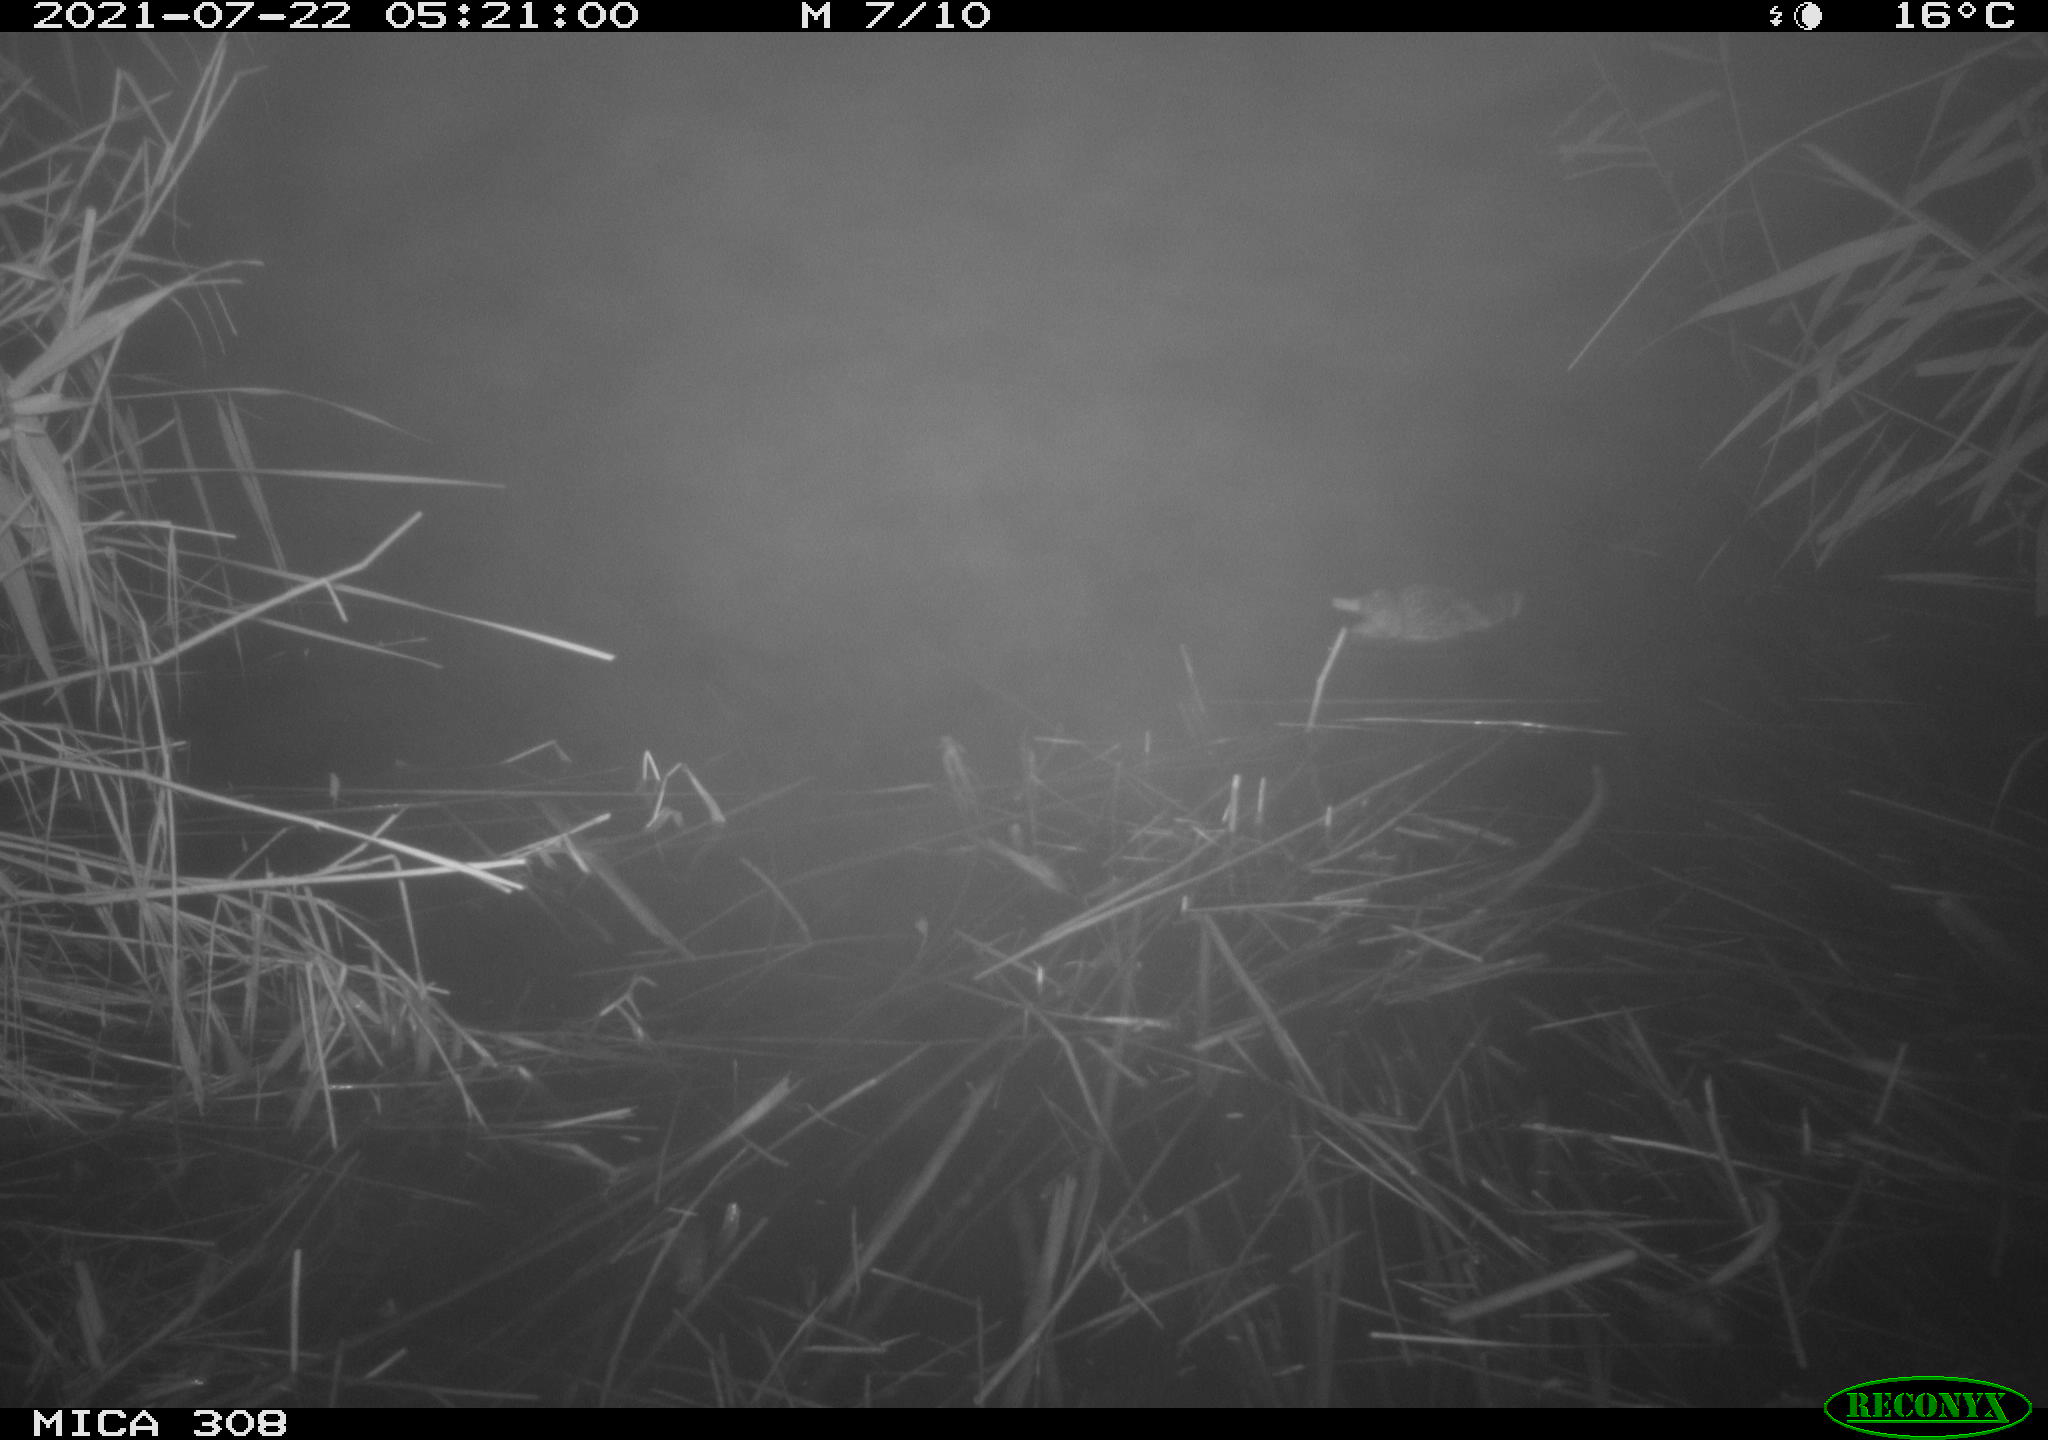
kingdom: Animalia
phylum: Chordata
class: Aves
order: Gruiformes
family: Rallidae
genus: Gallinula
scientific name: Gallinula chloropus
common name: Common moorhen
